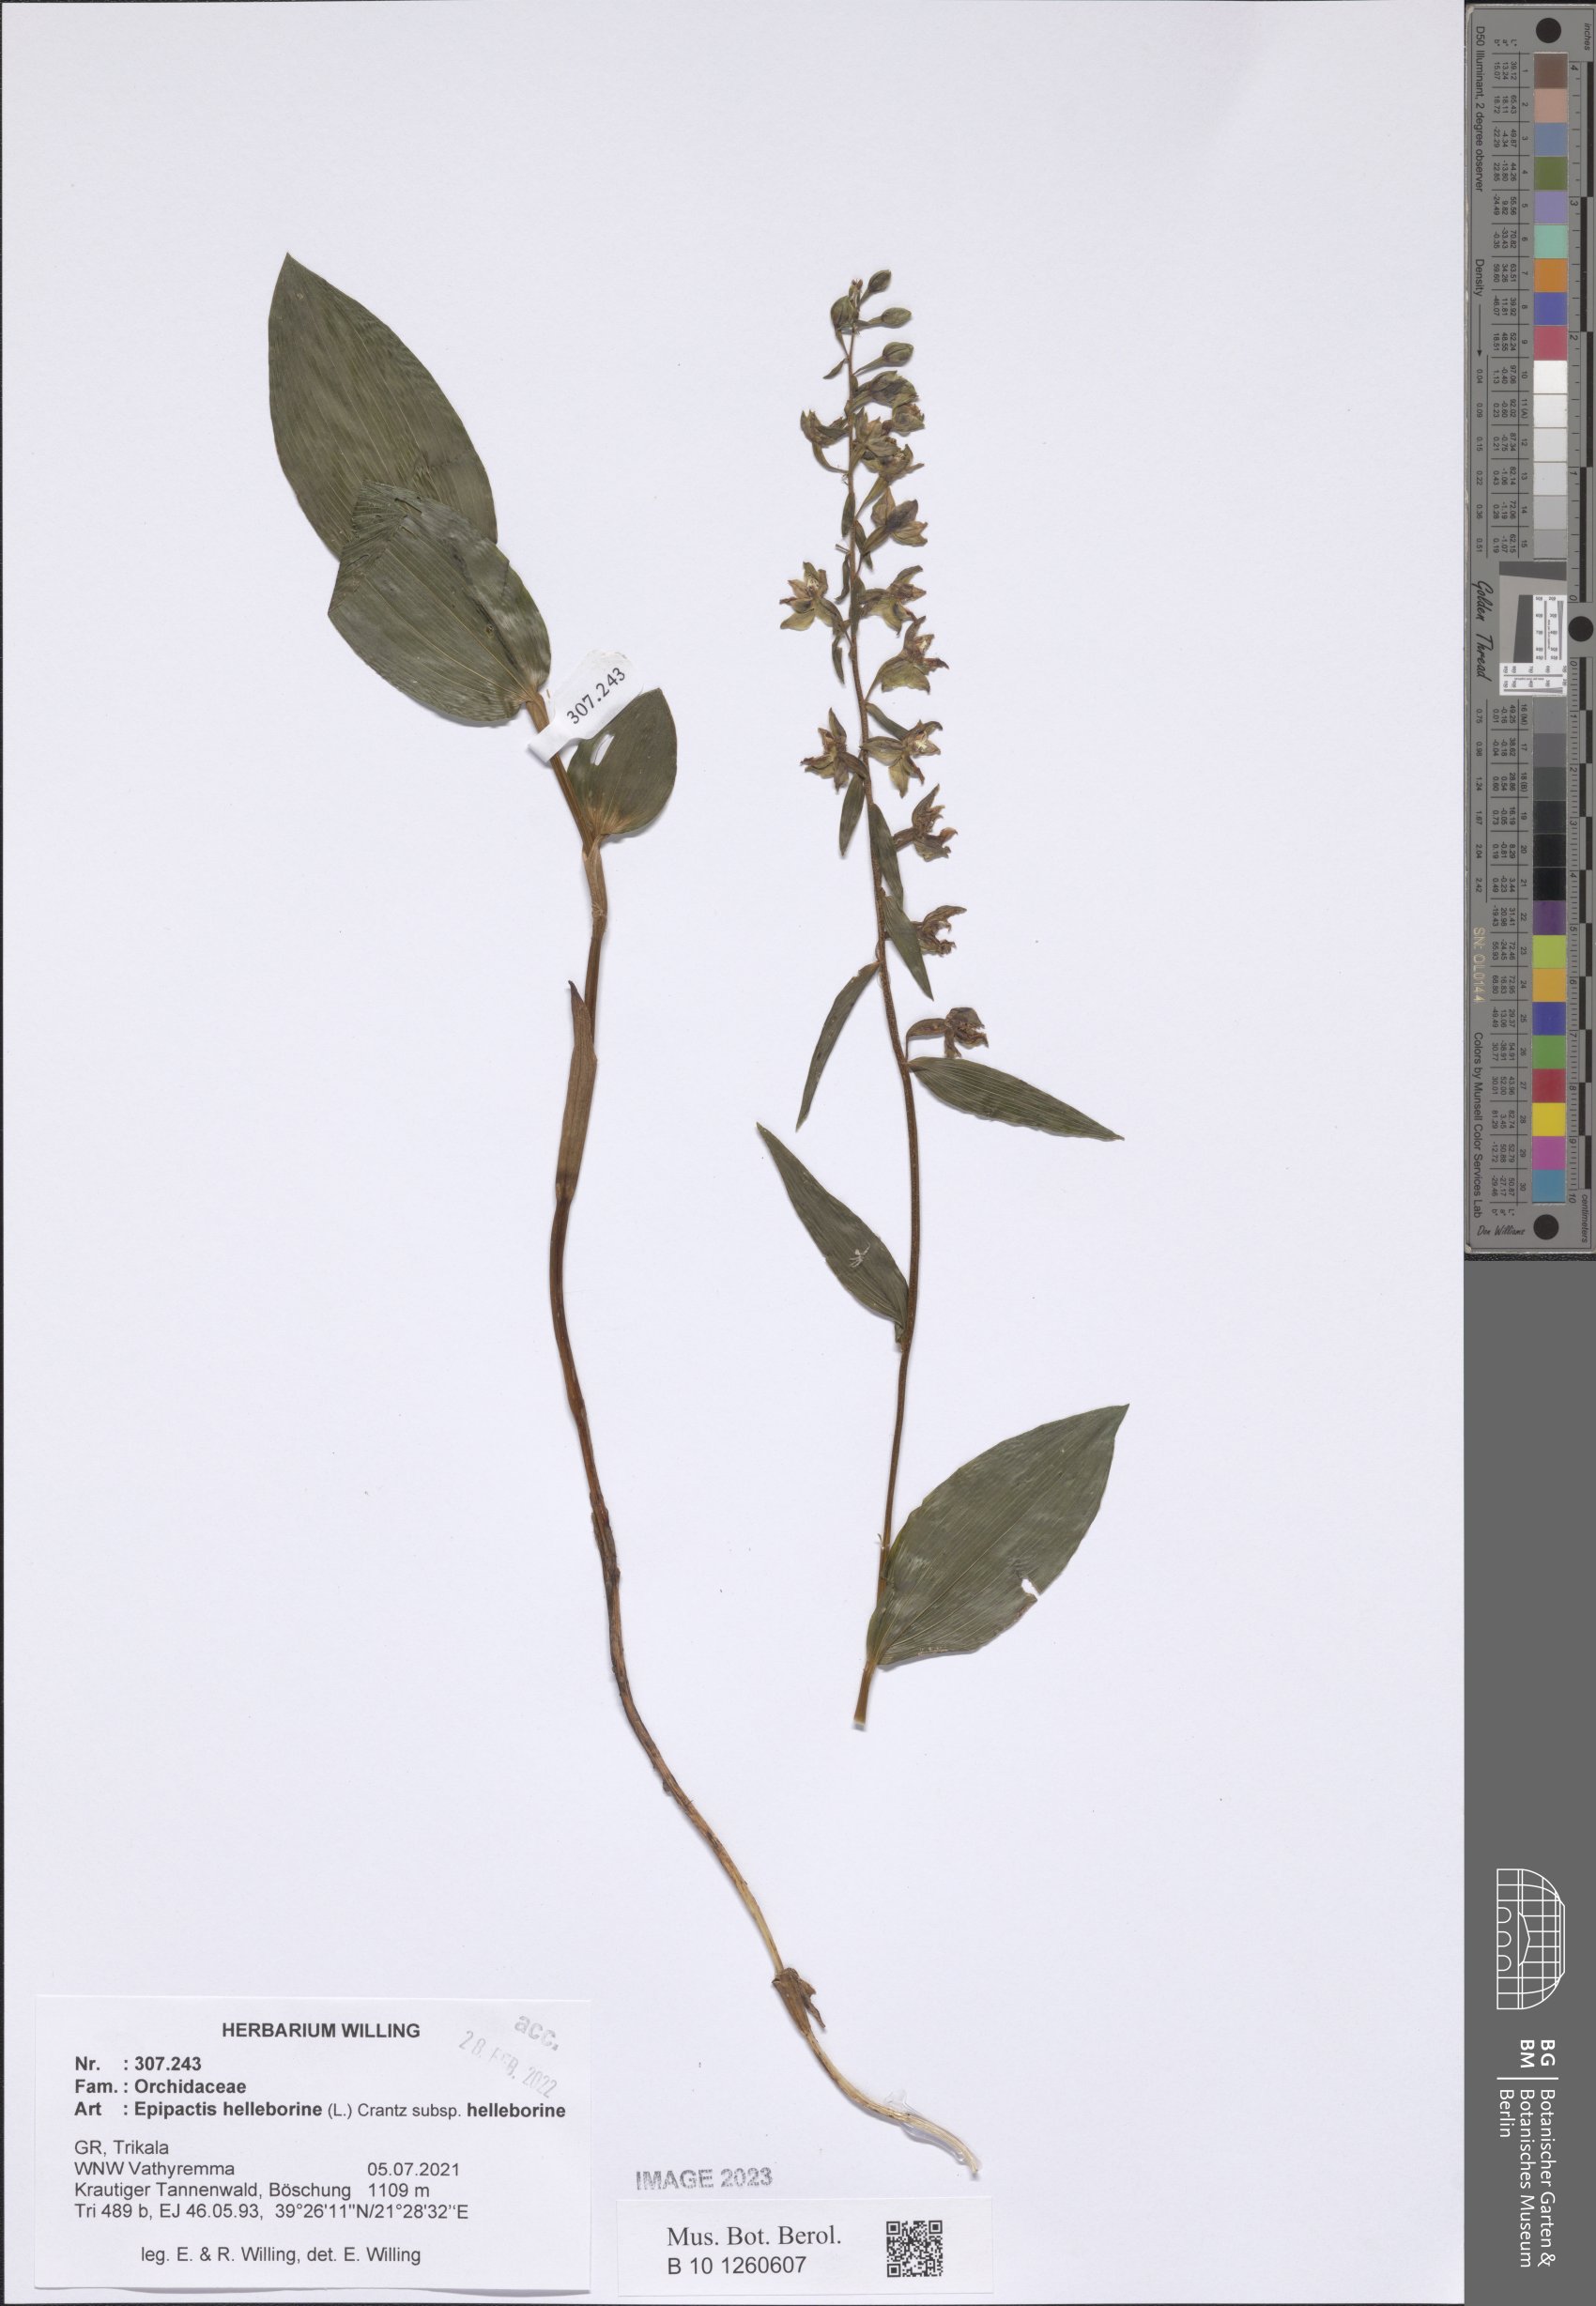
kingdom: Plantae
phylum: Tracheophyta
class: Liliopsida
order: Asparagales
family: Orchidaceae
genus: Epipactis
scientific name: Epipactis helleborine
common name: Broad-leaved helleborine
